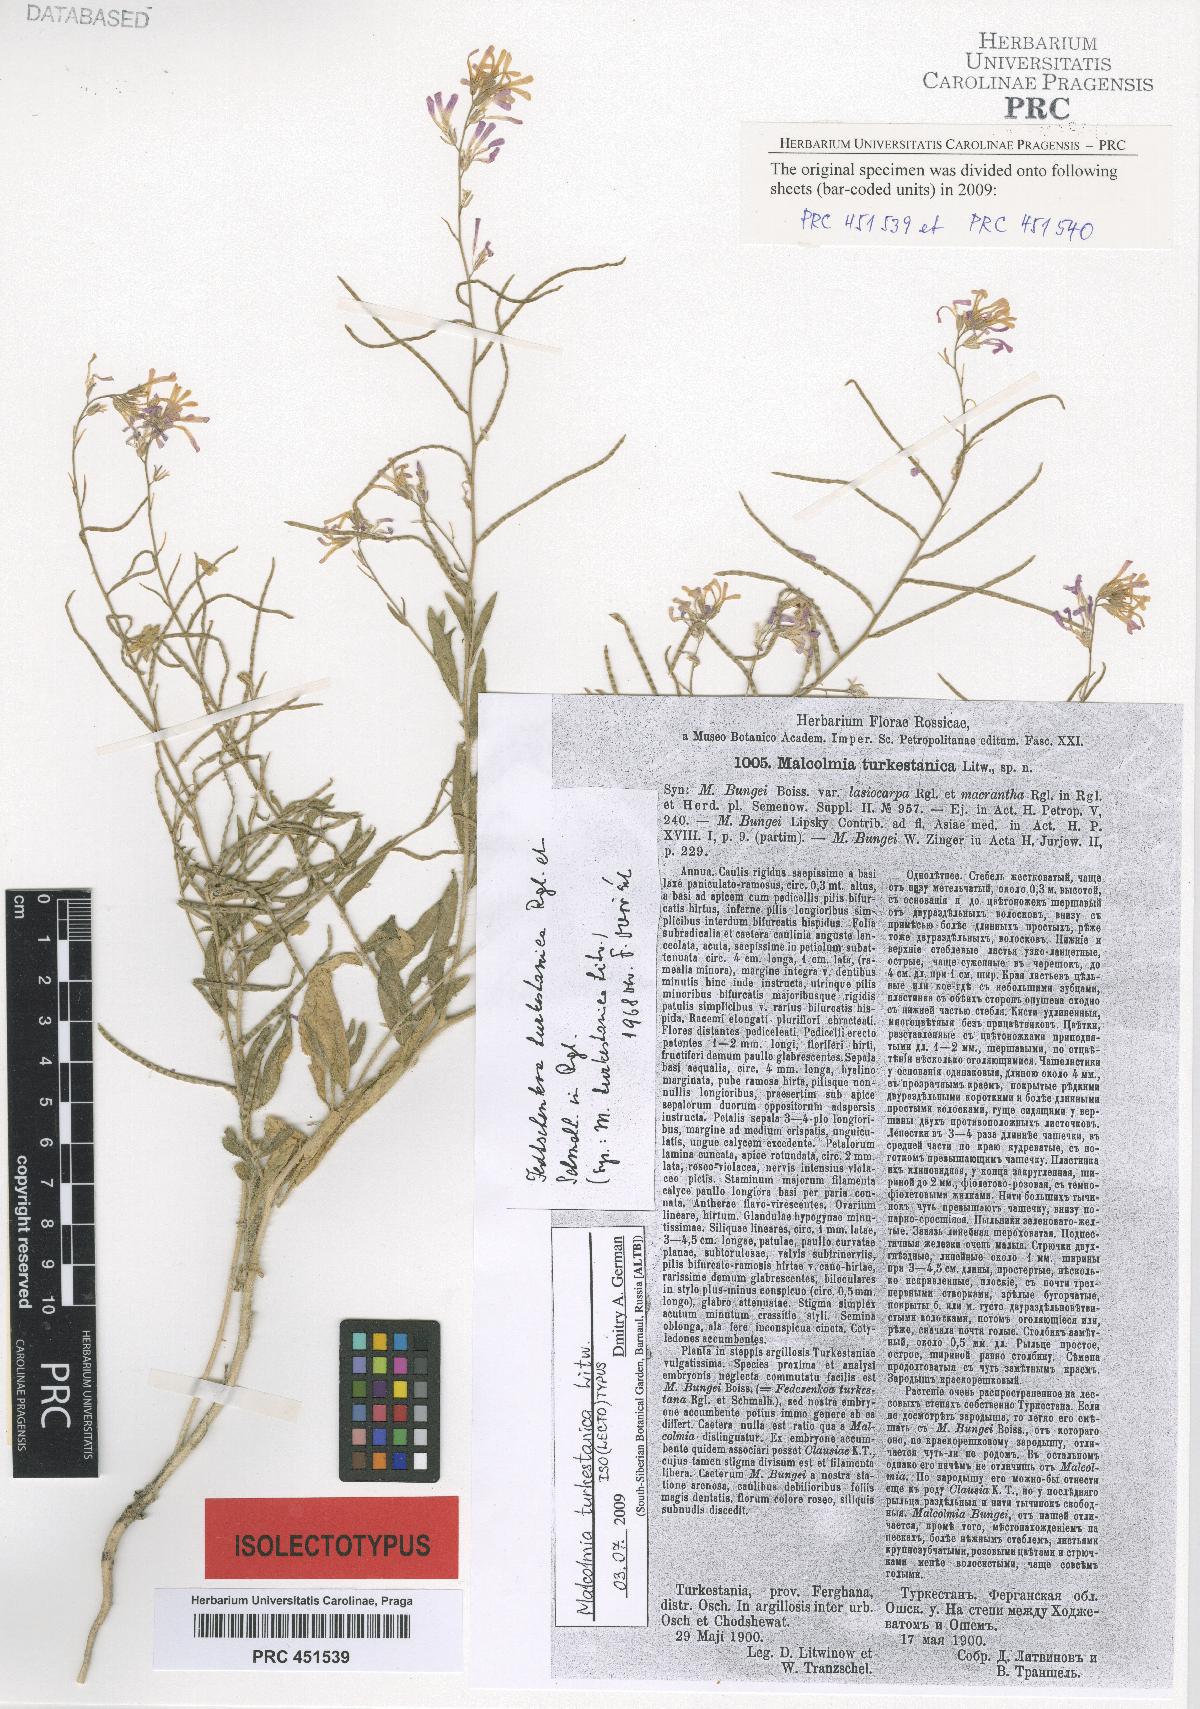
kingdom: Plantae
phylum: Tracheophyta
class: Magnoliopsida
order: Brassicales
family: Brassicaceae
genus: Strigosella
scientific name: Strigosella turkestanica
